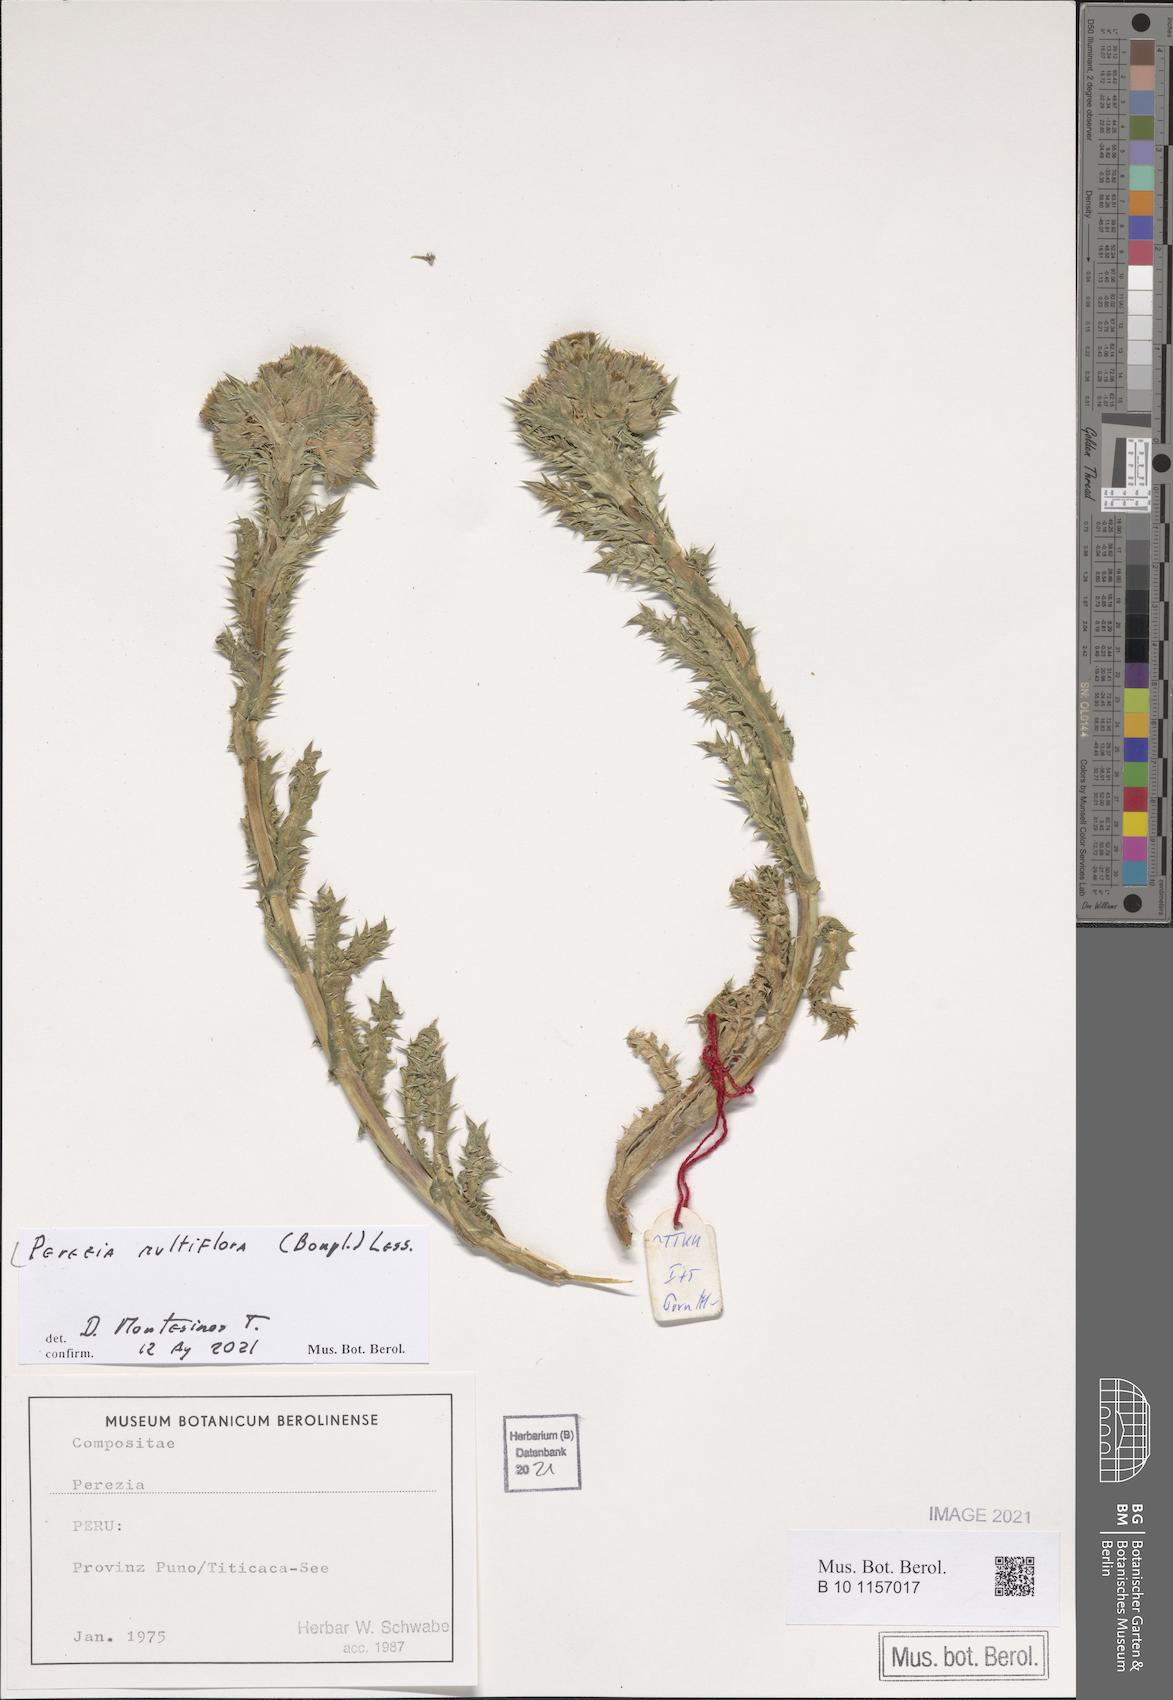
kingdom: Plantae
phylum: Tracheophyta
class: Magnoliopsida
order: Asterales
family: Asteraceae
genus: Perezia
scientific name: Perezia multiflora
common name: Perezia
